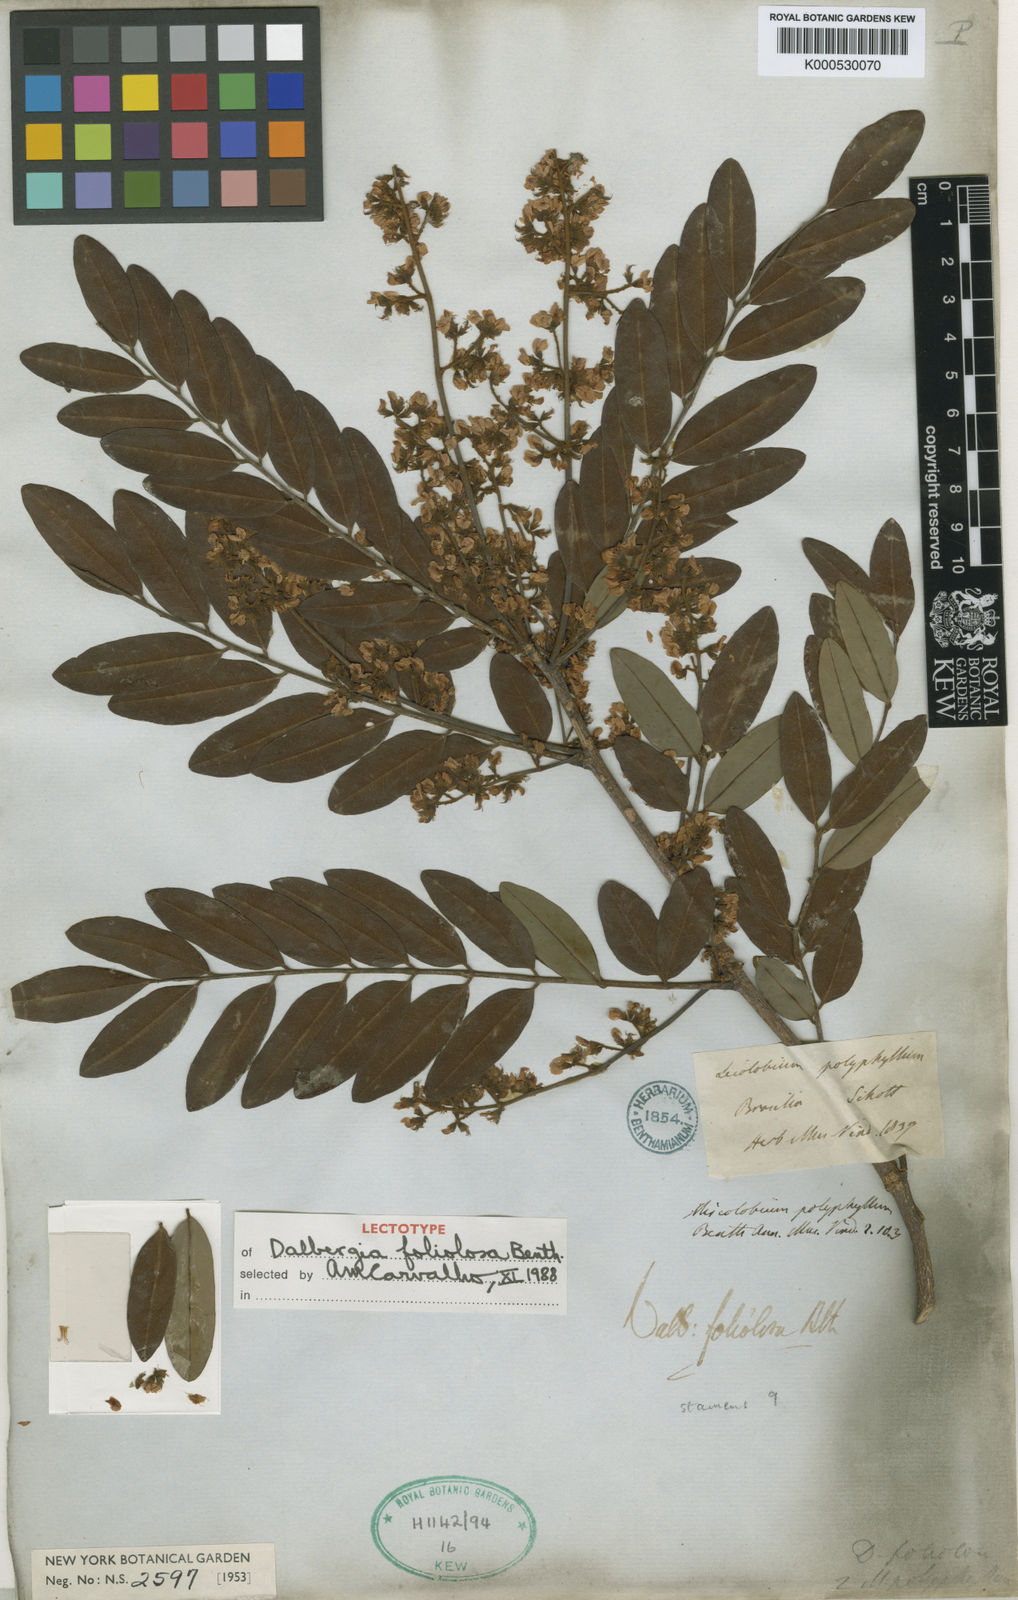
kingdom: Plantae
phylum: Tracheophyta
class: Magnoliopsida
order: Fabales
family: Fabaceae
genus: Dalbergia
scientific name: Dalbergia foliolosa
